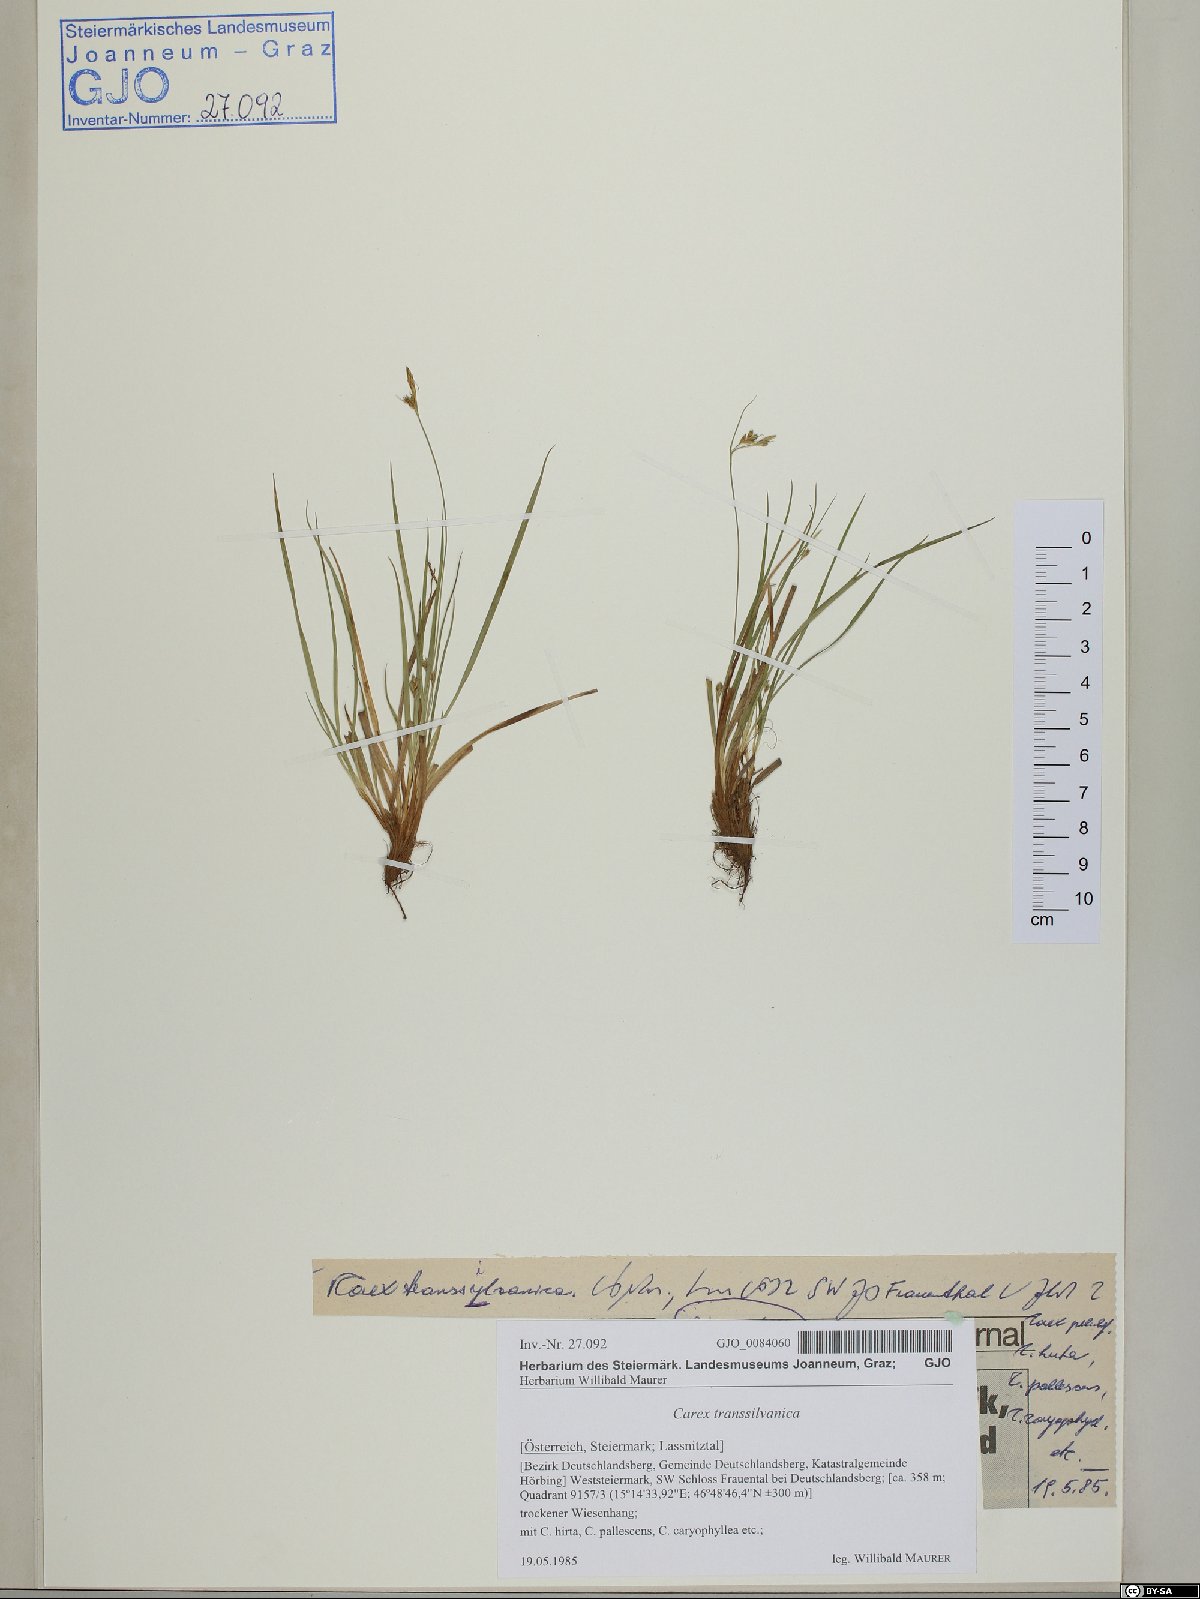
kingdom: Plantae
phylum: Tracheophyta
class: Liliopsida
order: Poales
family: Cyperaceae
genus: Carex
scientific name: Carex depressa
